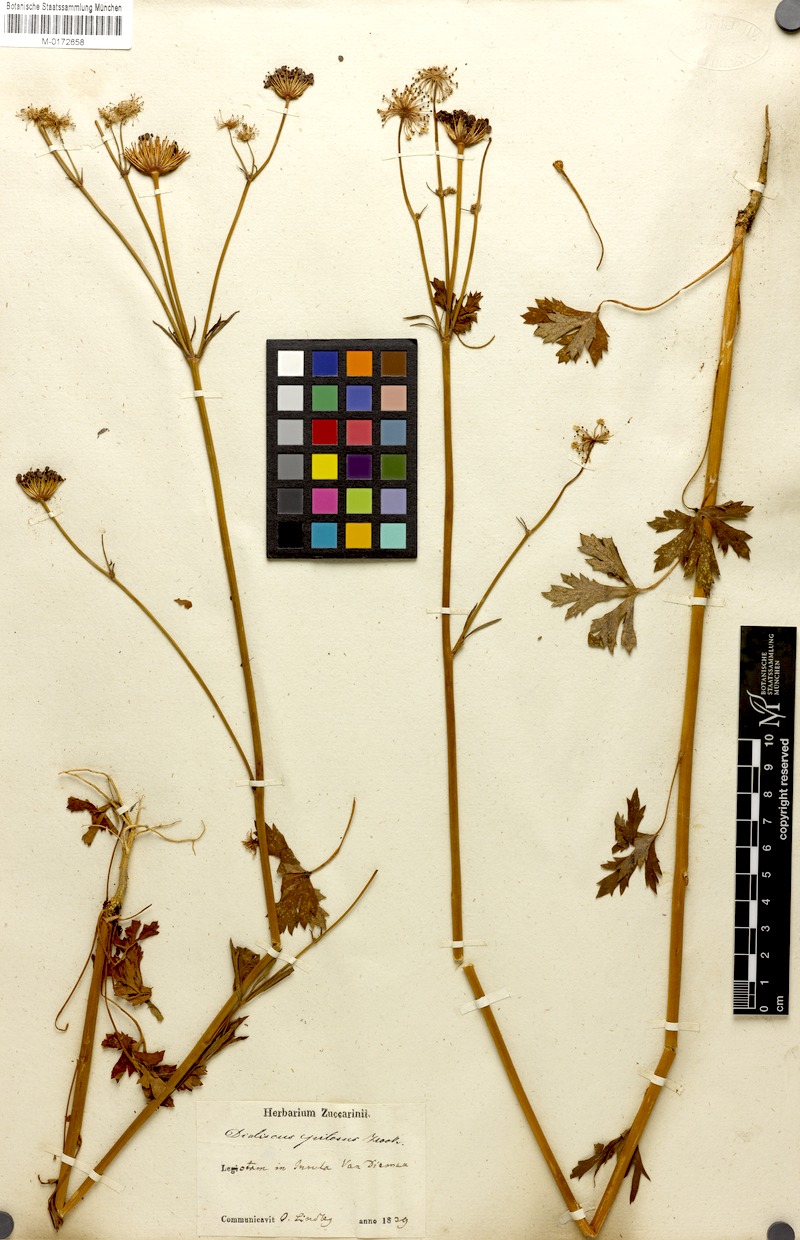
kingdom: Plantae
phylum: Tracheophyta
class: Magnoliopsida
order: Apiales
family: Araliaceae
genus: Trachymene
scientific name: Trachymene
